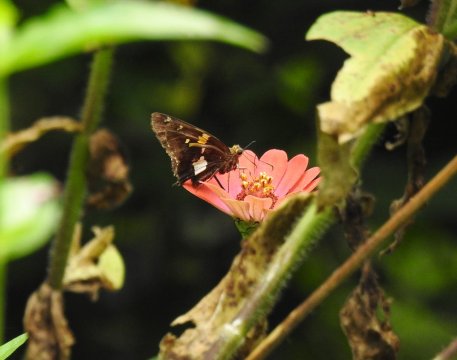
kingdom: Animalia
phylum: Arthropoda
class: Insecta
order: Lepidoptera
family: Hesperiidae
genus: Epargyreus
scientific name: Epargyreus clarus
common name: Silver-spotted Skipper
